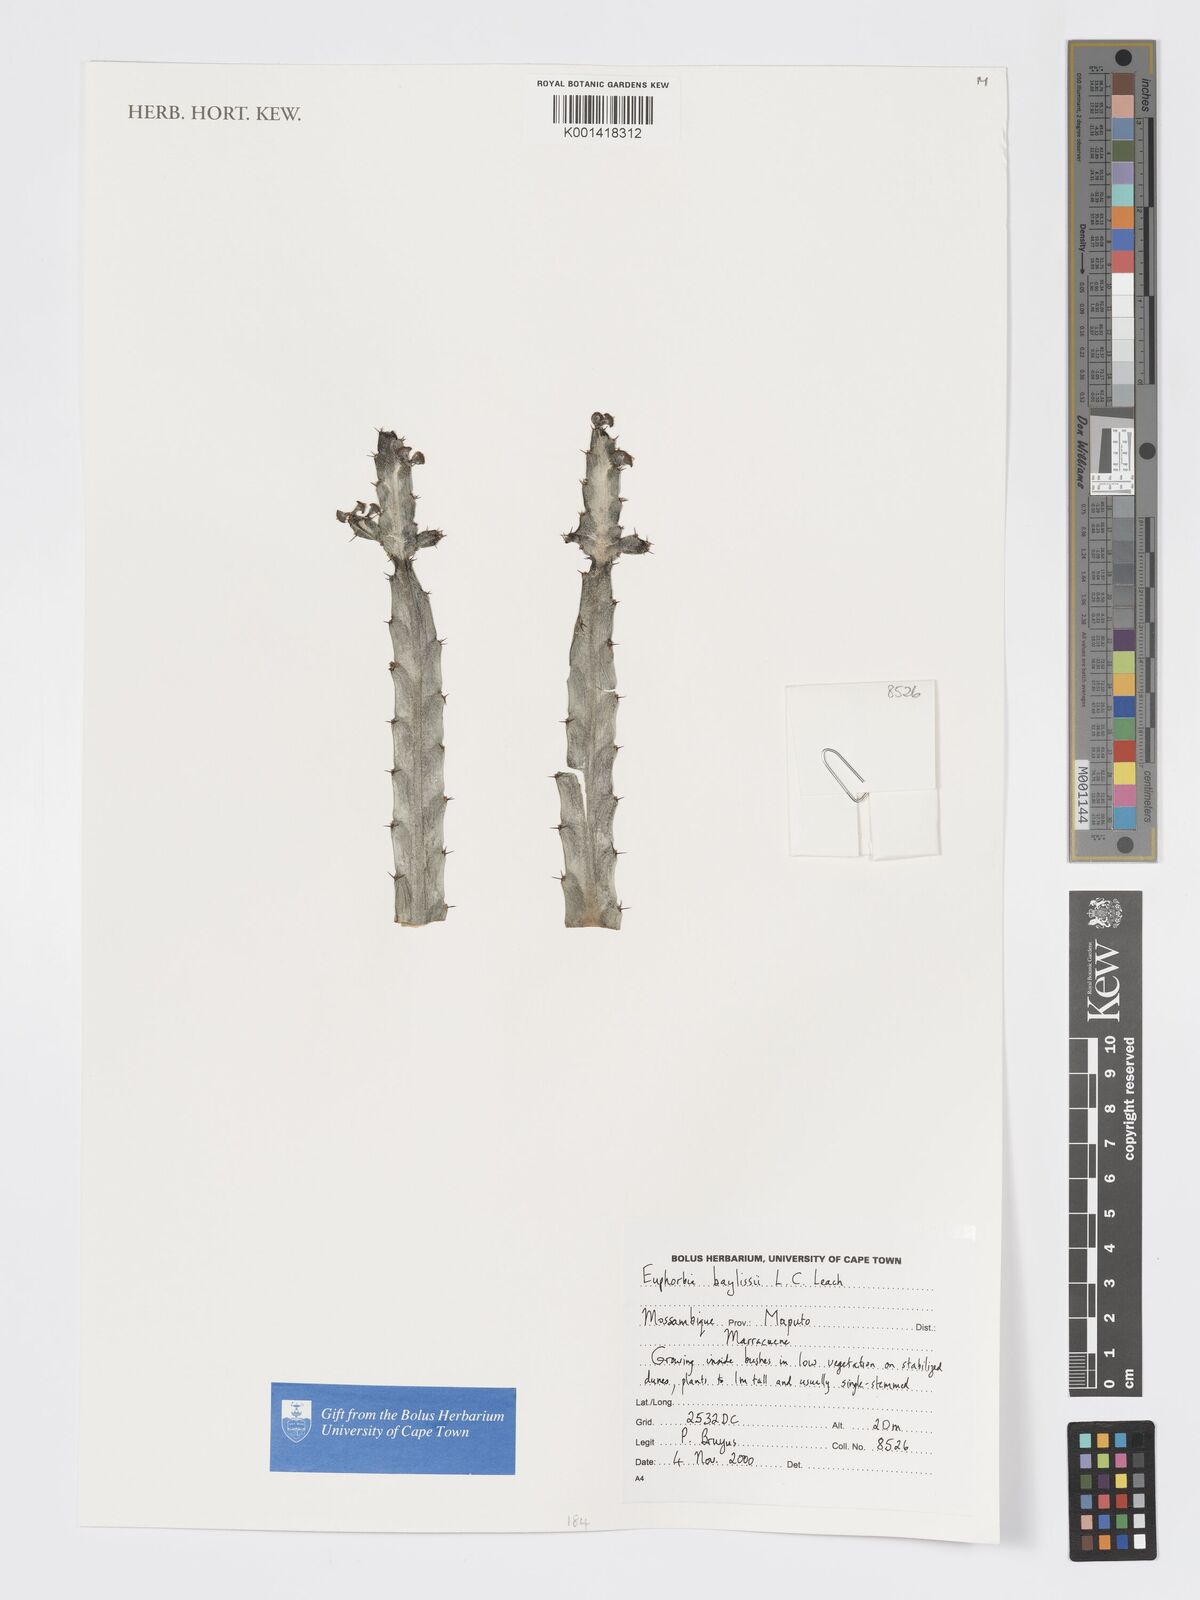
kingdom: Plantae
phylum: Tracheophyta
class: Magnoliopsida
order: Malpighiales
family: Euphorbiaceae
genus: Euphorbia
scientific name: Euphorbia baylissii
